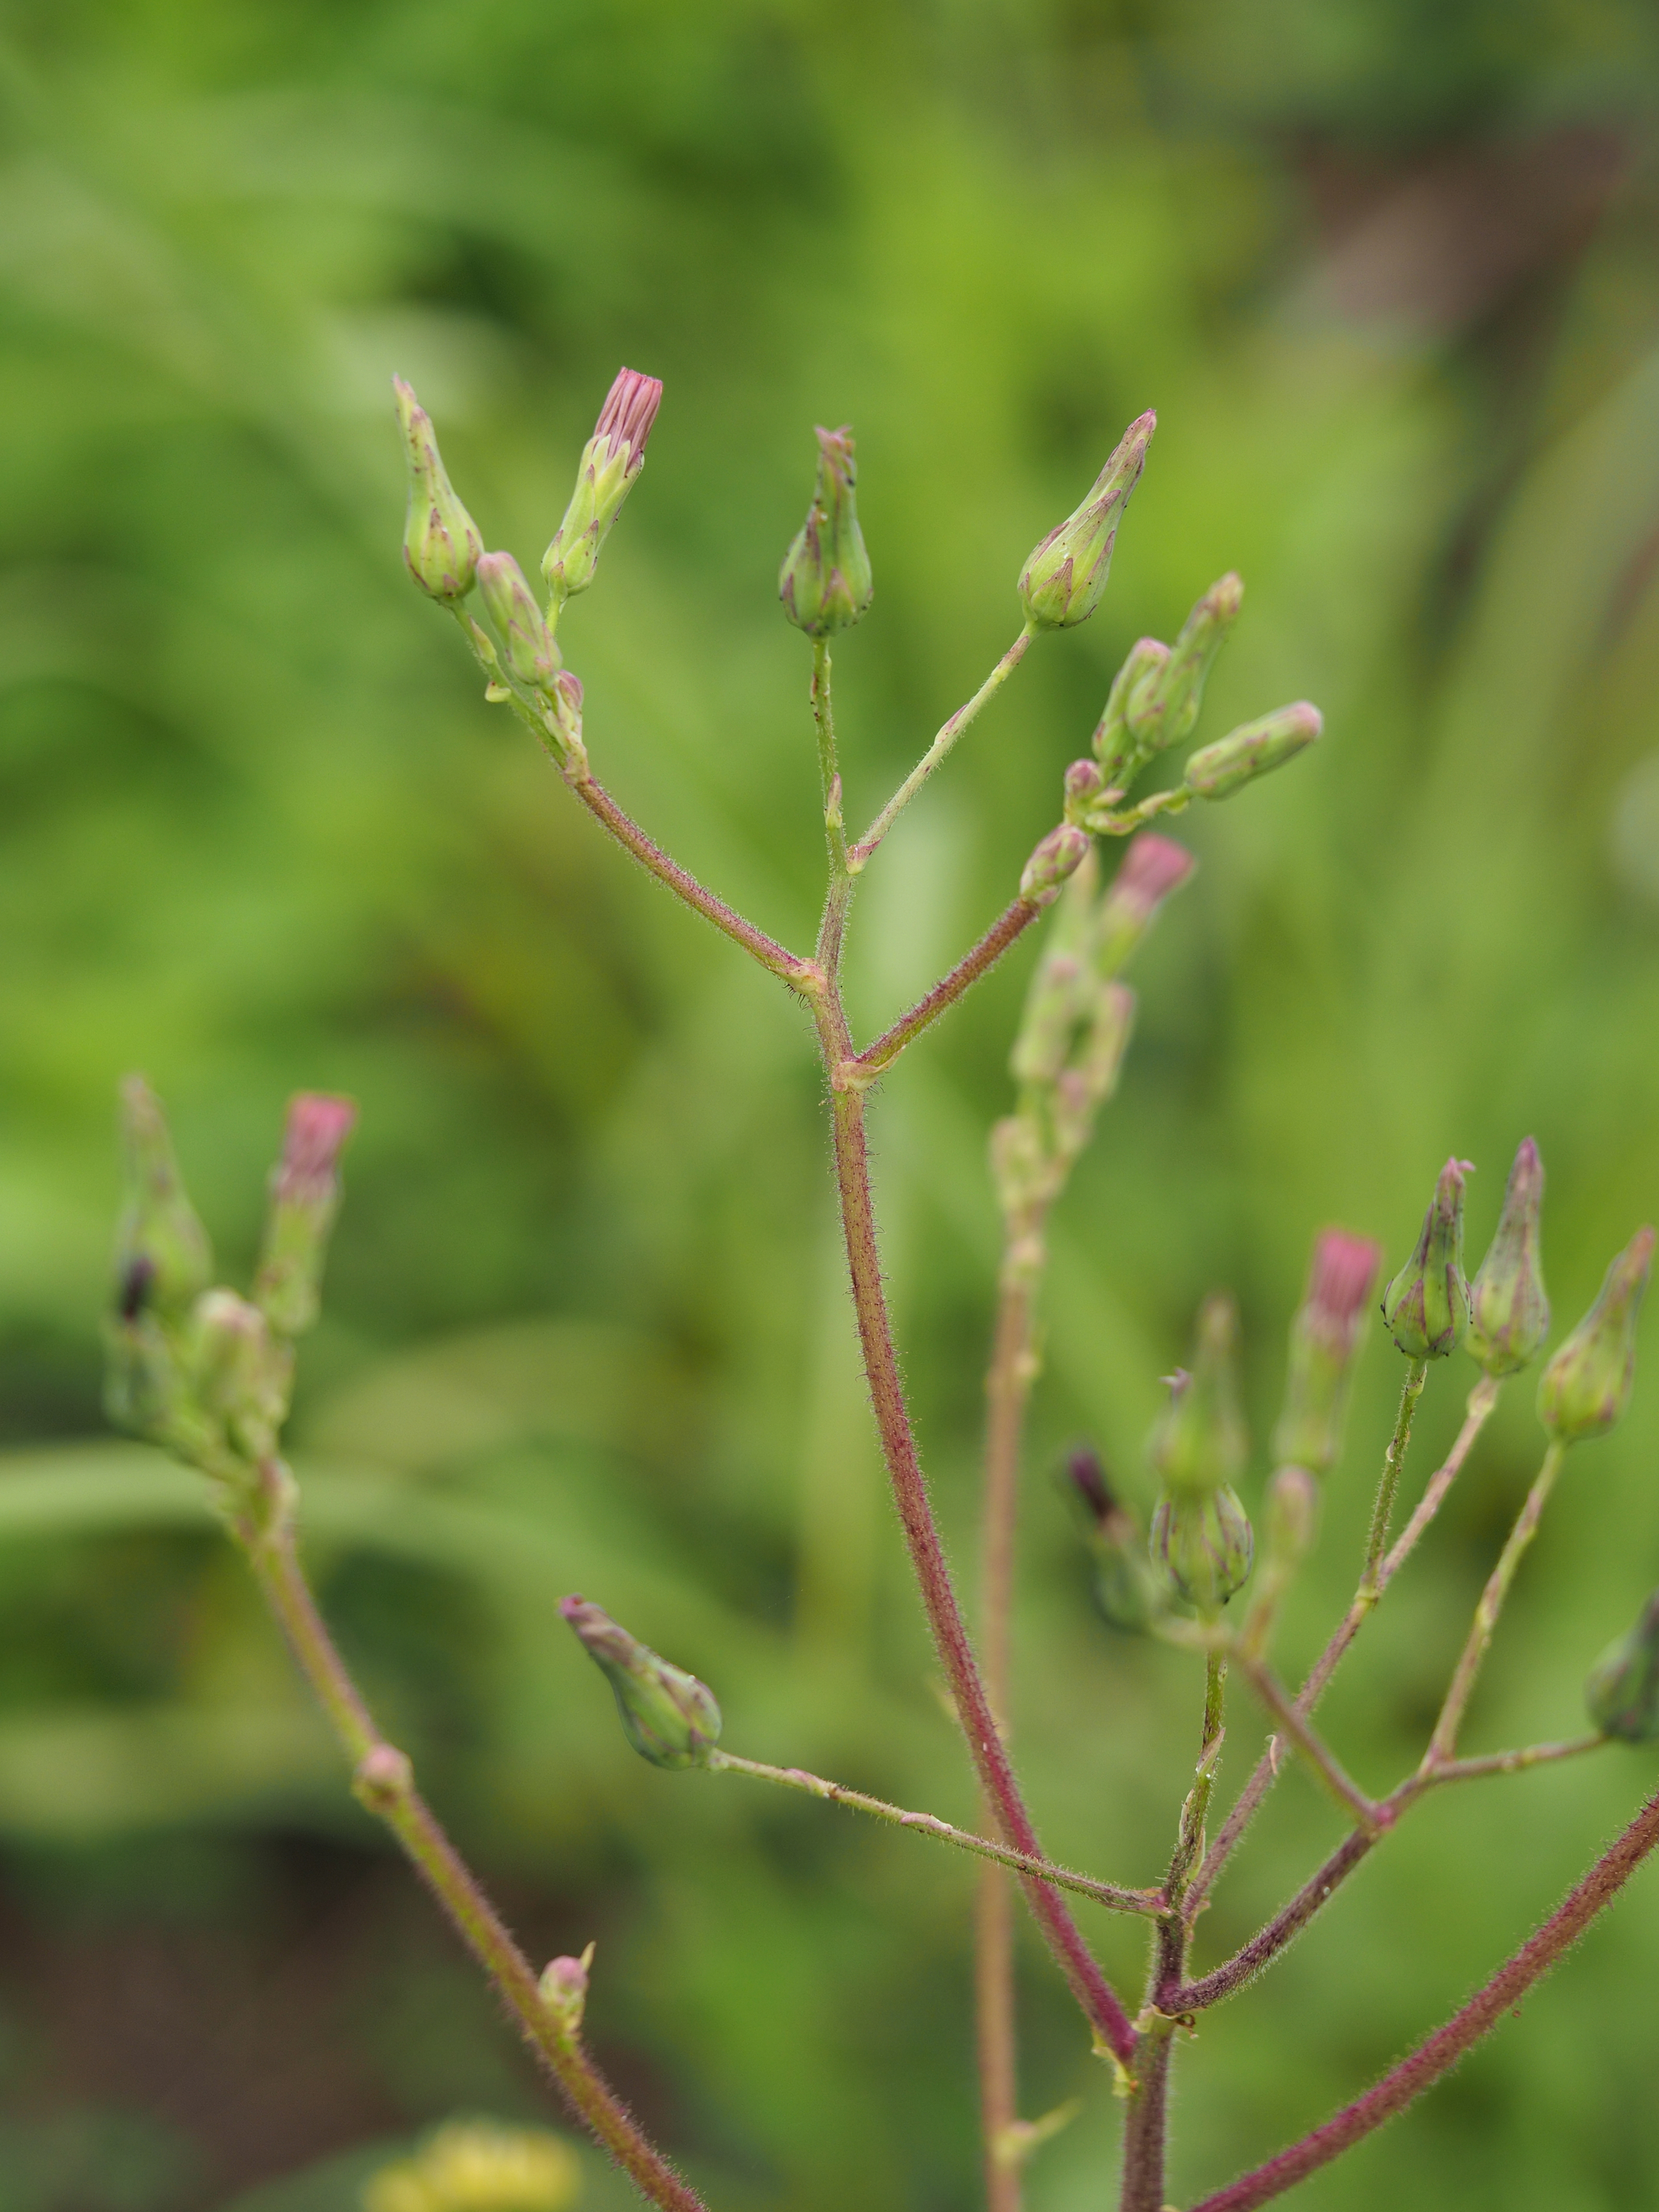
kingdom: Plantae
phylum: Tracheophyta
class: Magnoliopsida
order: Asterales
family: Asteraceae
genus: Lactuca
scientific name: Lactuca formosana
